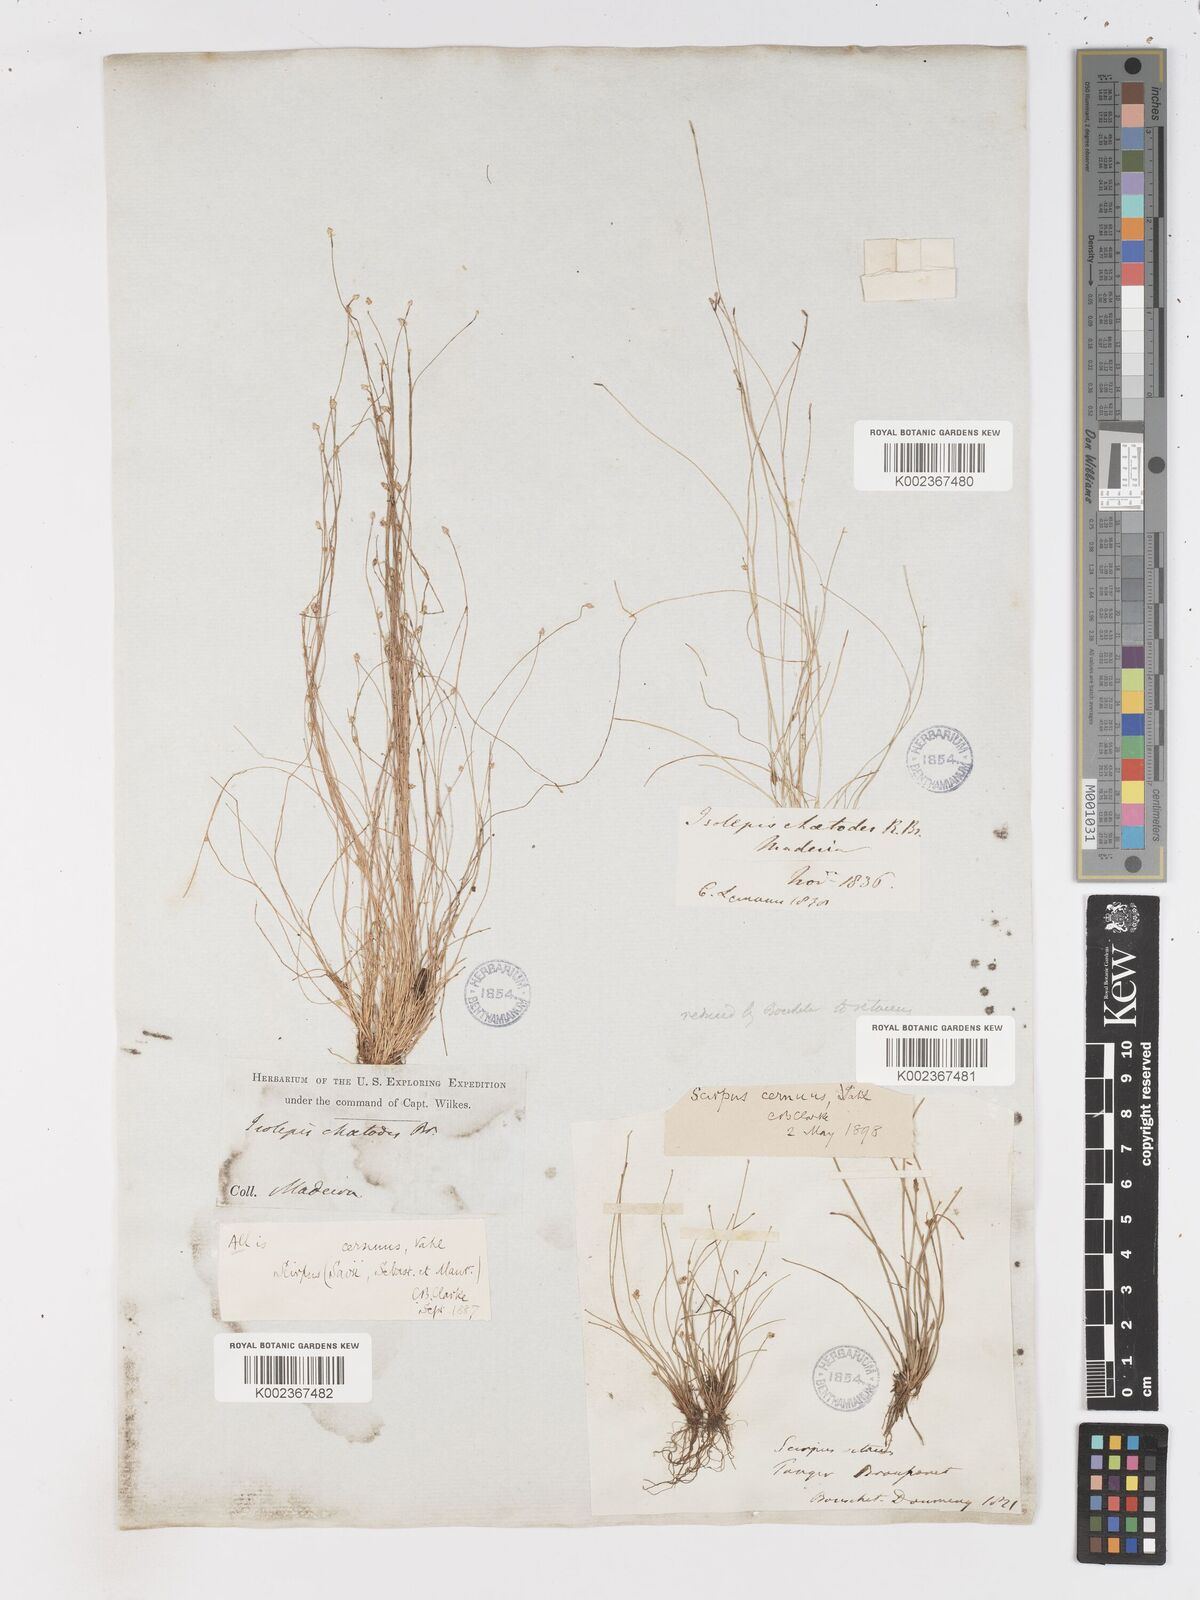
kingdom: Plantae
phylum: Tracheophyta
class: Liliopsida
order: Poales
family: Cyperaceae
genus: Isolepis
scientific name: Isolepis cernua
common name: Slender club-rush
